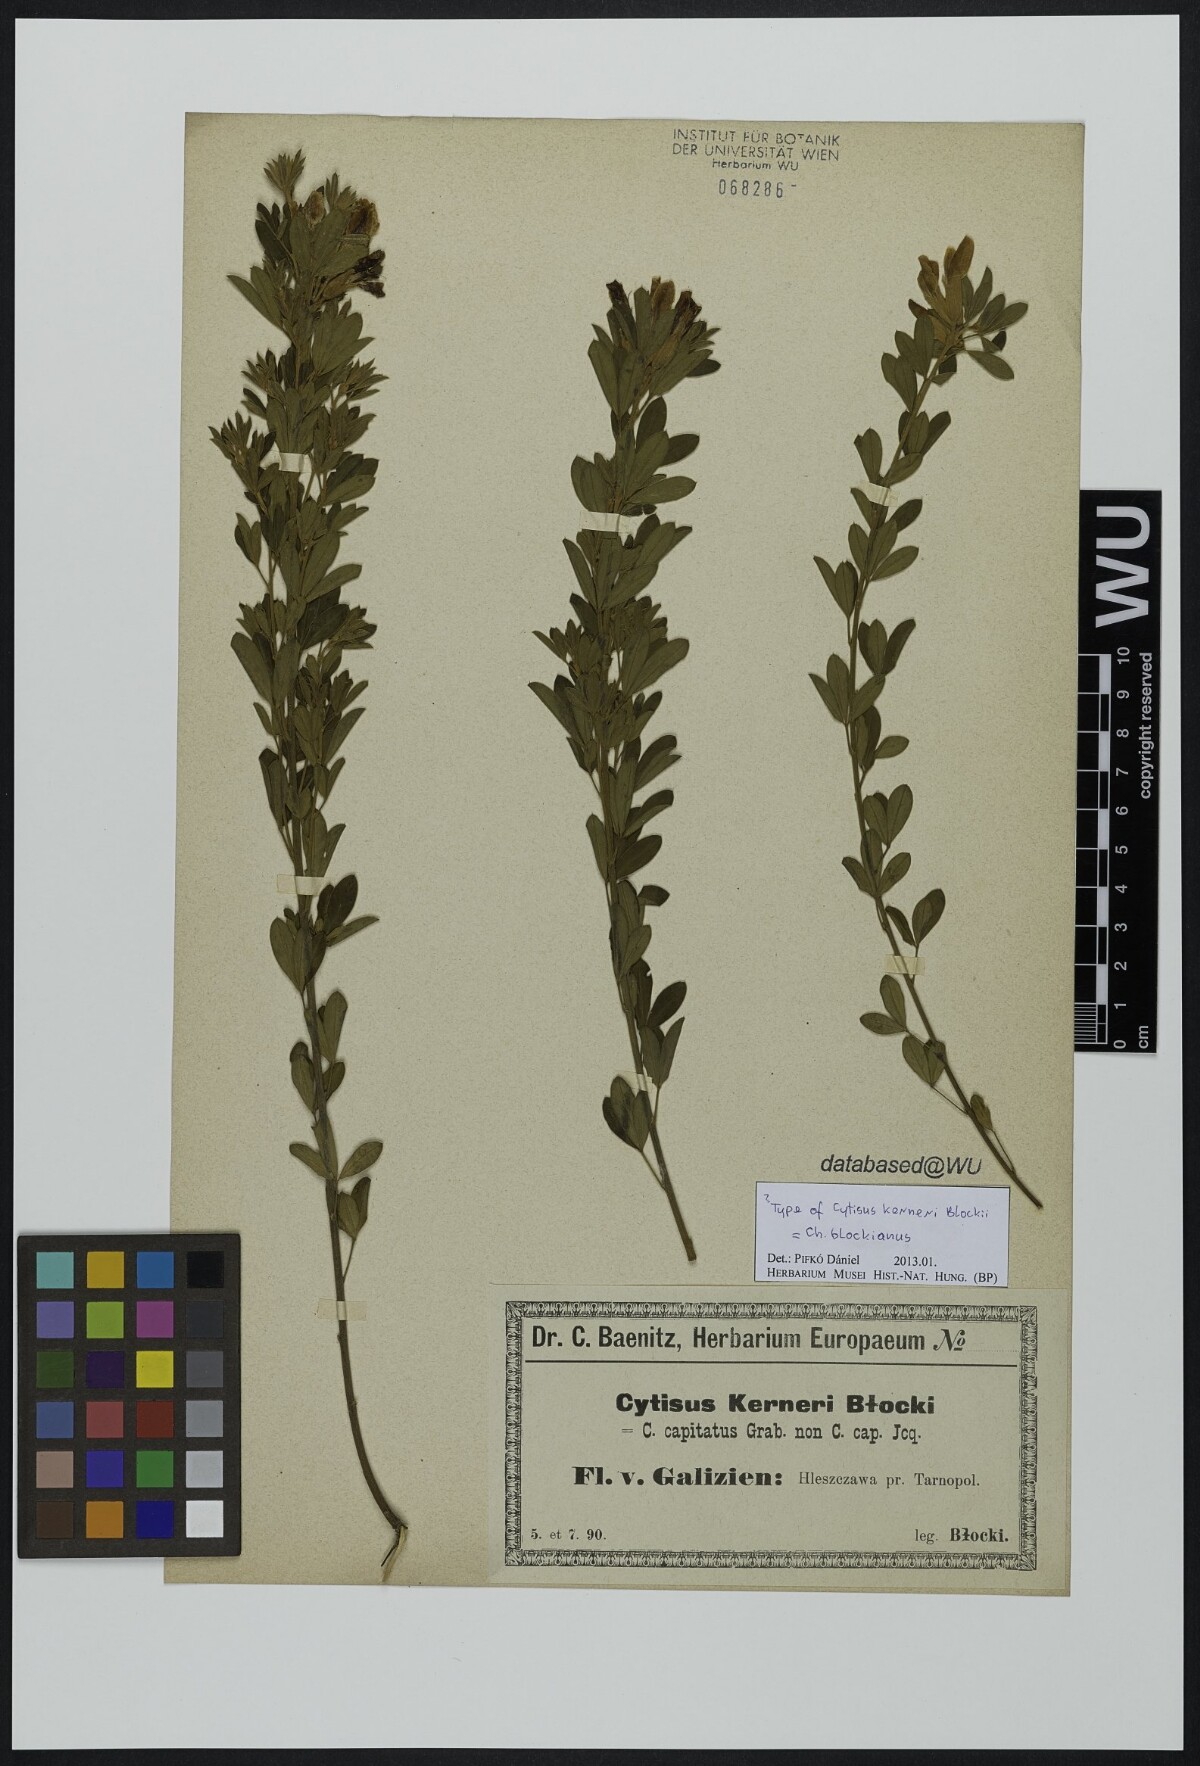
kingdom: Plantae
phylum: Tracheophyta
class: Magnoliopsida
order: Fabales
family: Fabaceae
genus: Cytisus
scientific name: Cytisus kerneri
